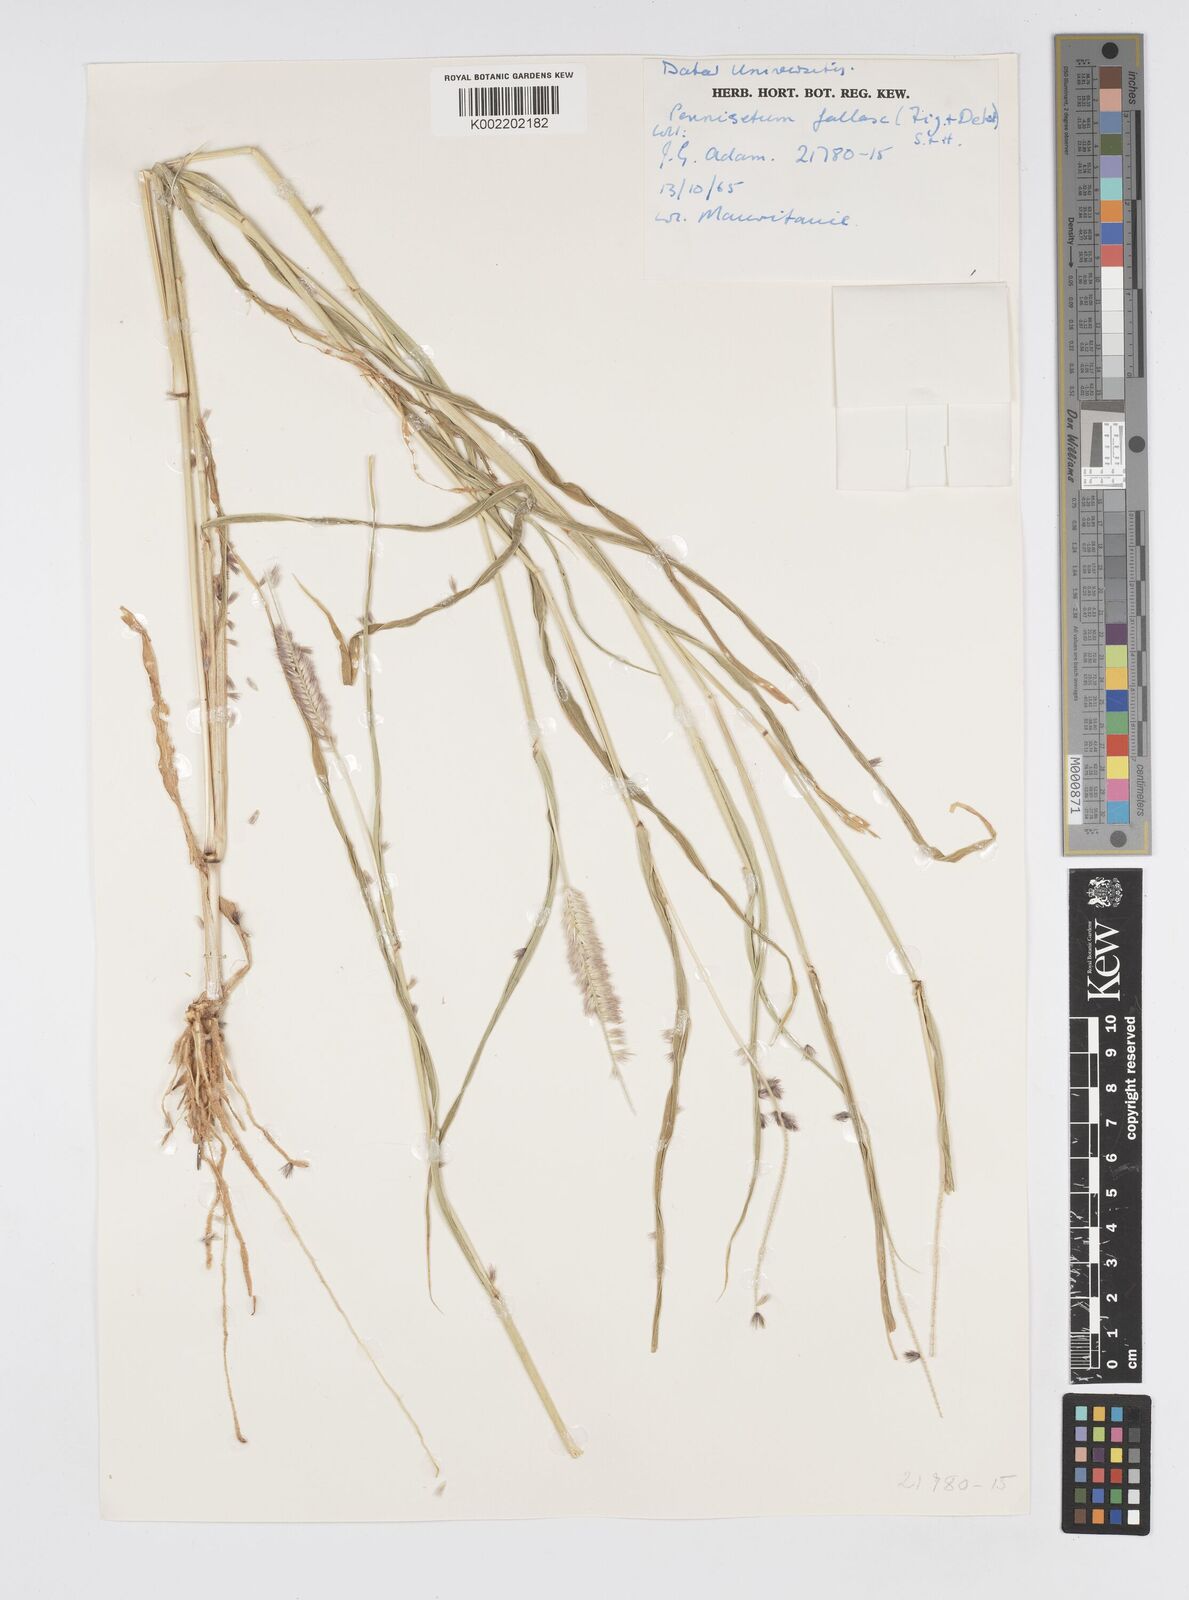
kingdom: Plantae
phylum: Tracheophyta
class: Liliopsida
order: Poales
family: Poaceae
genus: Cenchrus
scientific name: Cenchrus violaceus
